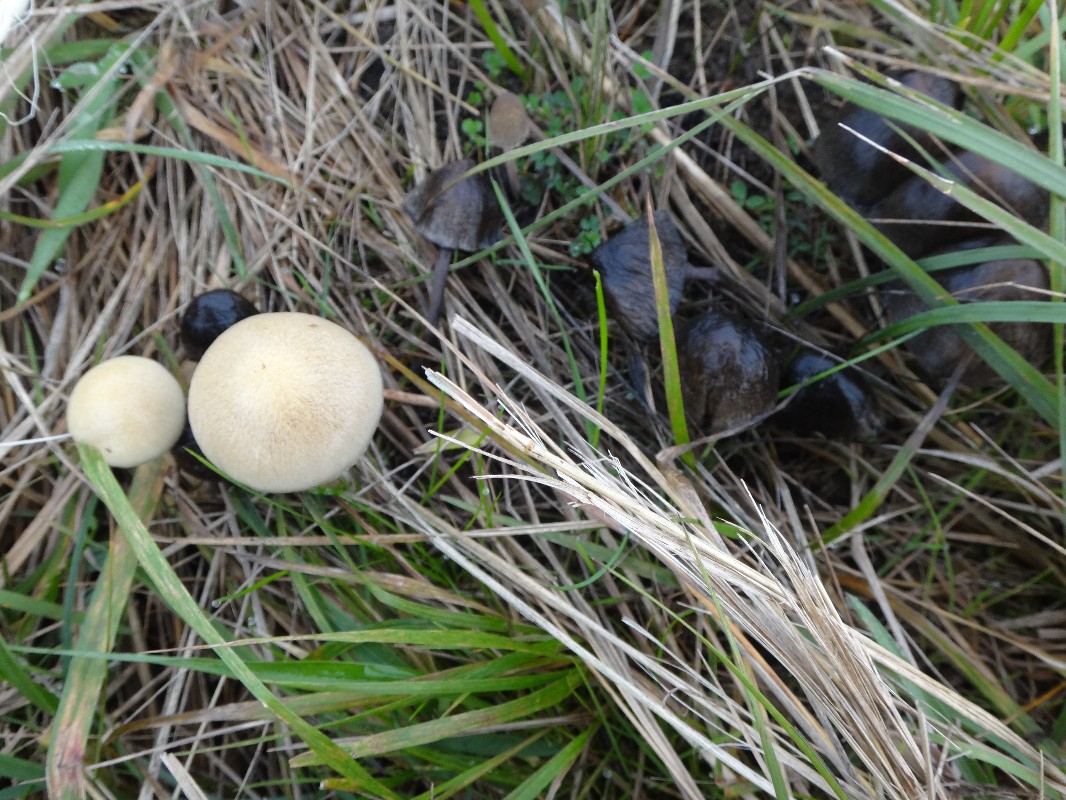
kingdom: Fungi
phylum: Basidiomycota
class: Agaricomycetes
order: Agaricales
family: Strophariaceae
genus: Protostropharia
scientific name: Protostropharia semiglobata
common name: halvkugleformet bredblad
